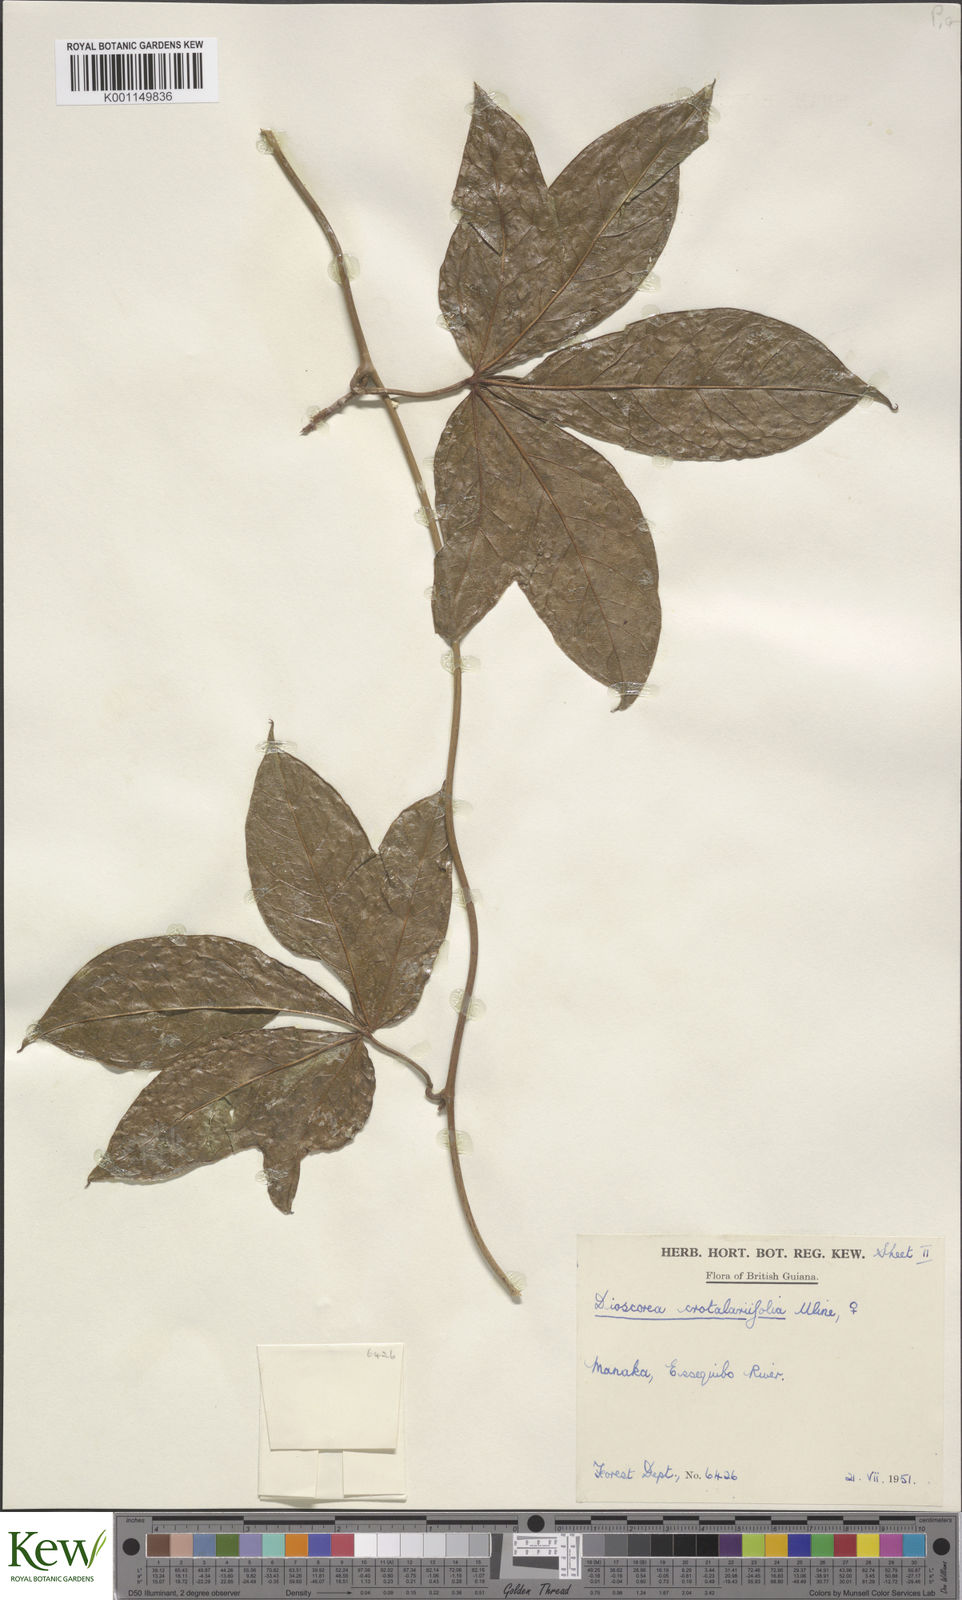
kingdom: Plantae
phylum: Tracheophyta
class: Liliopsida
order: Dioscoreales
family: Dioscoreaceae
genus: Dioscorea
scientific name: Dioscorea crotalariifolia
